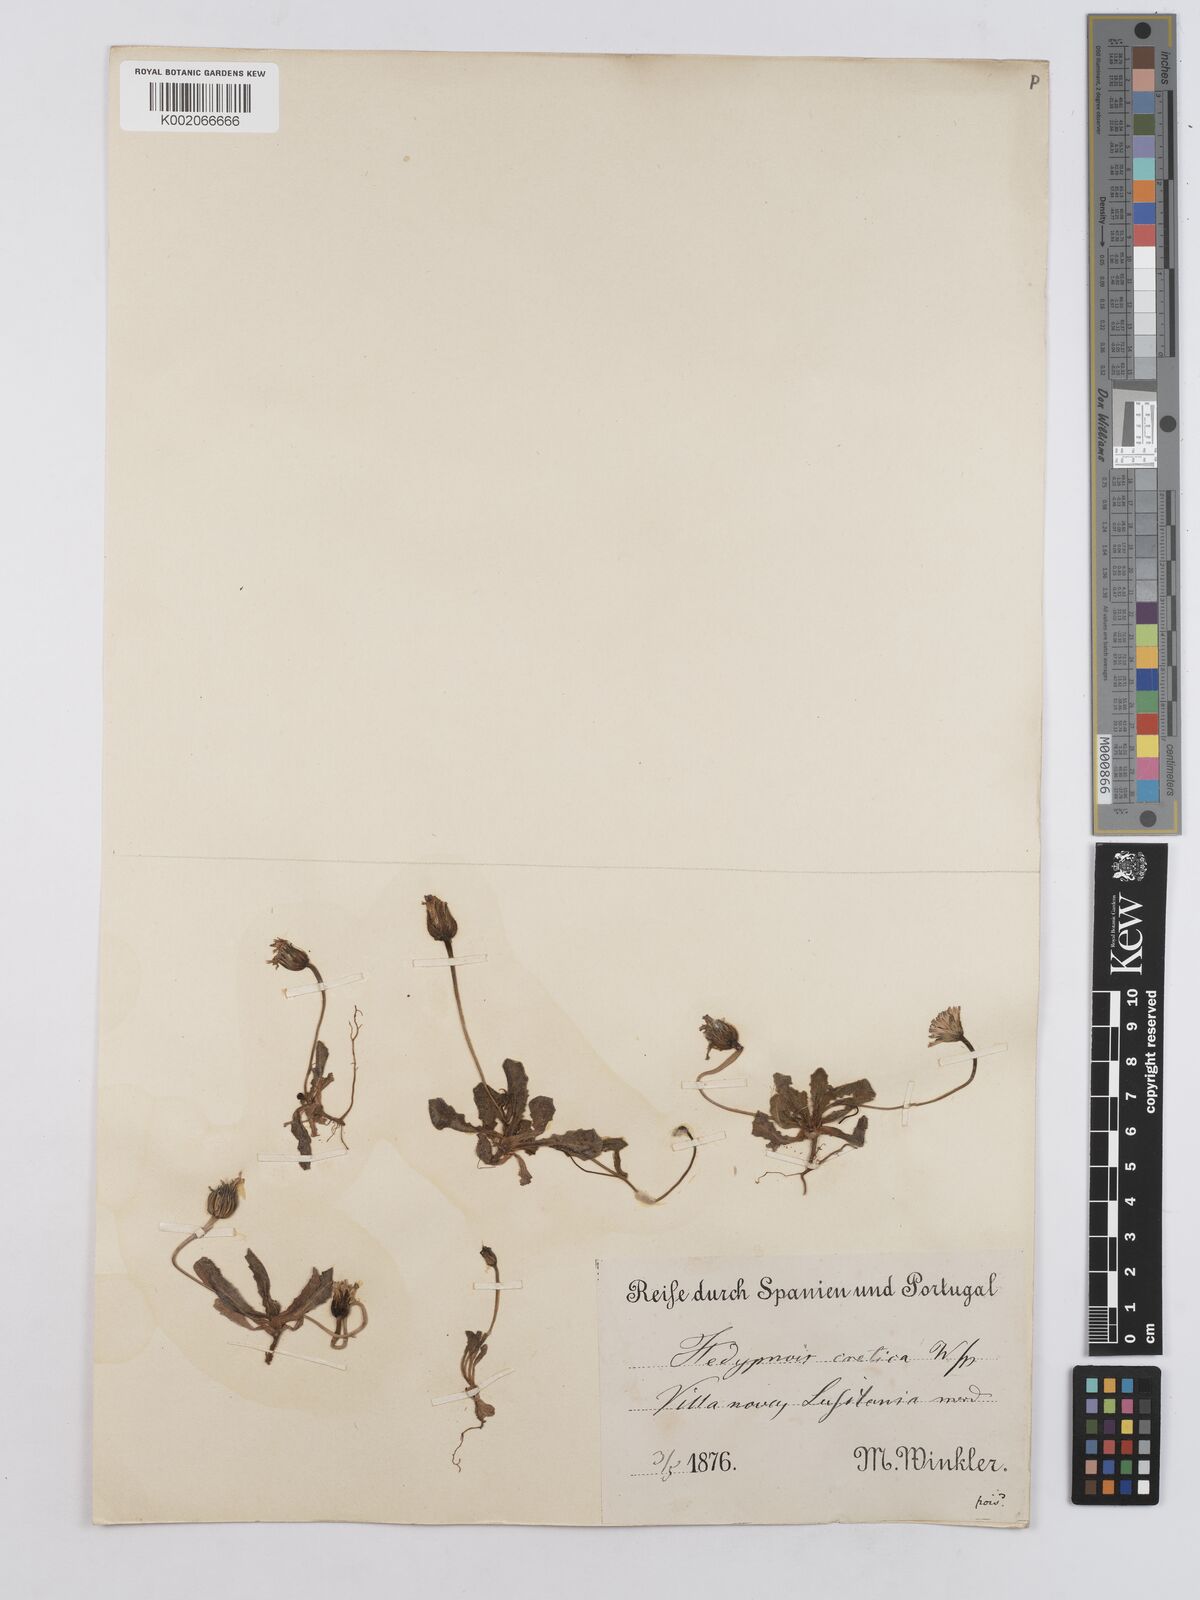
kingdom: Plantae
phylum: Tracheophyta
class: Magnoliopsida
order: Asterales
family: Asteraceae
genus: Hedypnois
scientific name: Hedypnois cretica
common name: Scaly hawkbit
